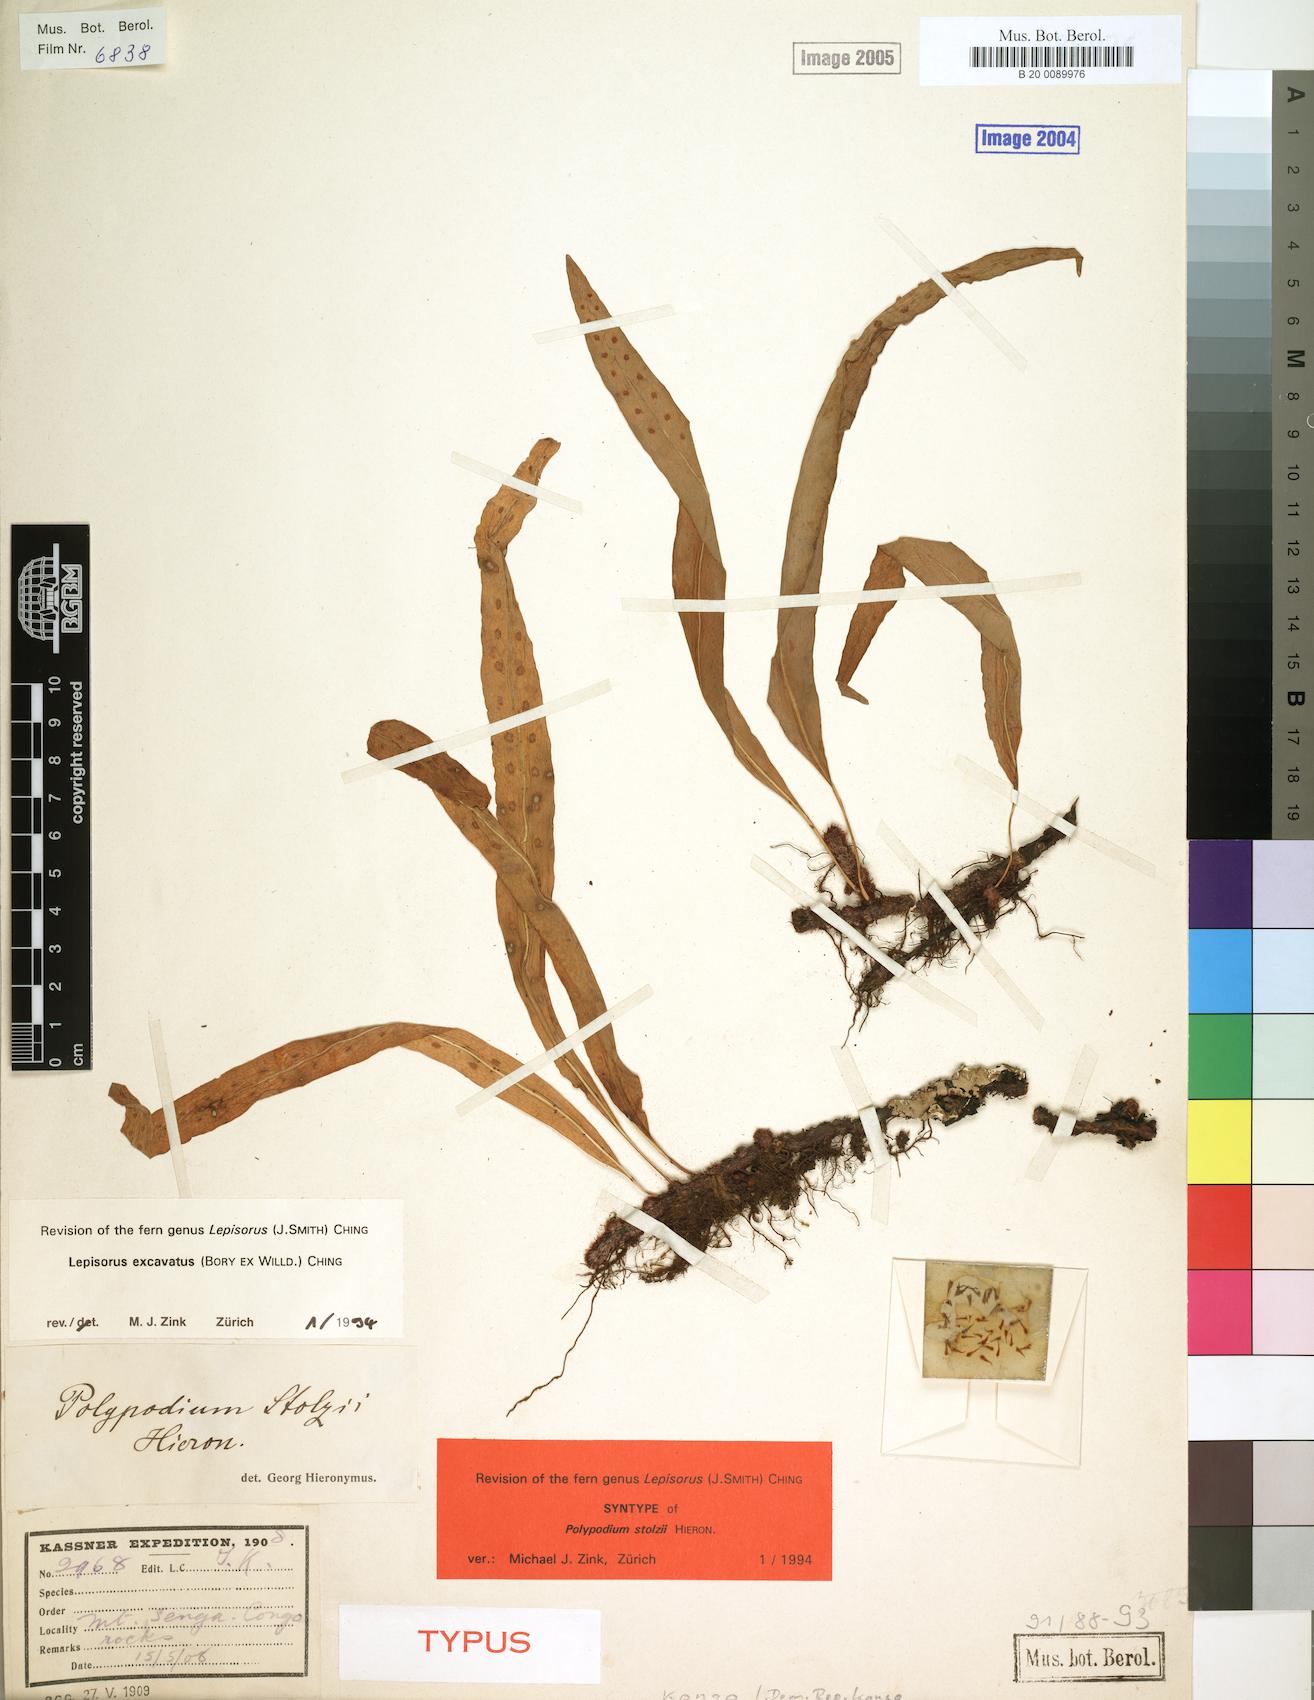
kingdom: Plantae
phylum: Tracheophyta
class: Polypodiopsida
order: Polypodiales
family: Polypodiaceae
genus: Lepisorus
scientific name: Lepisorus excavatus
